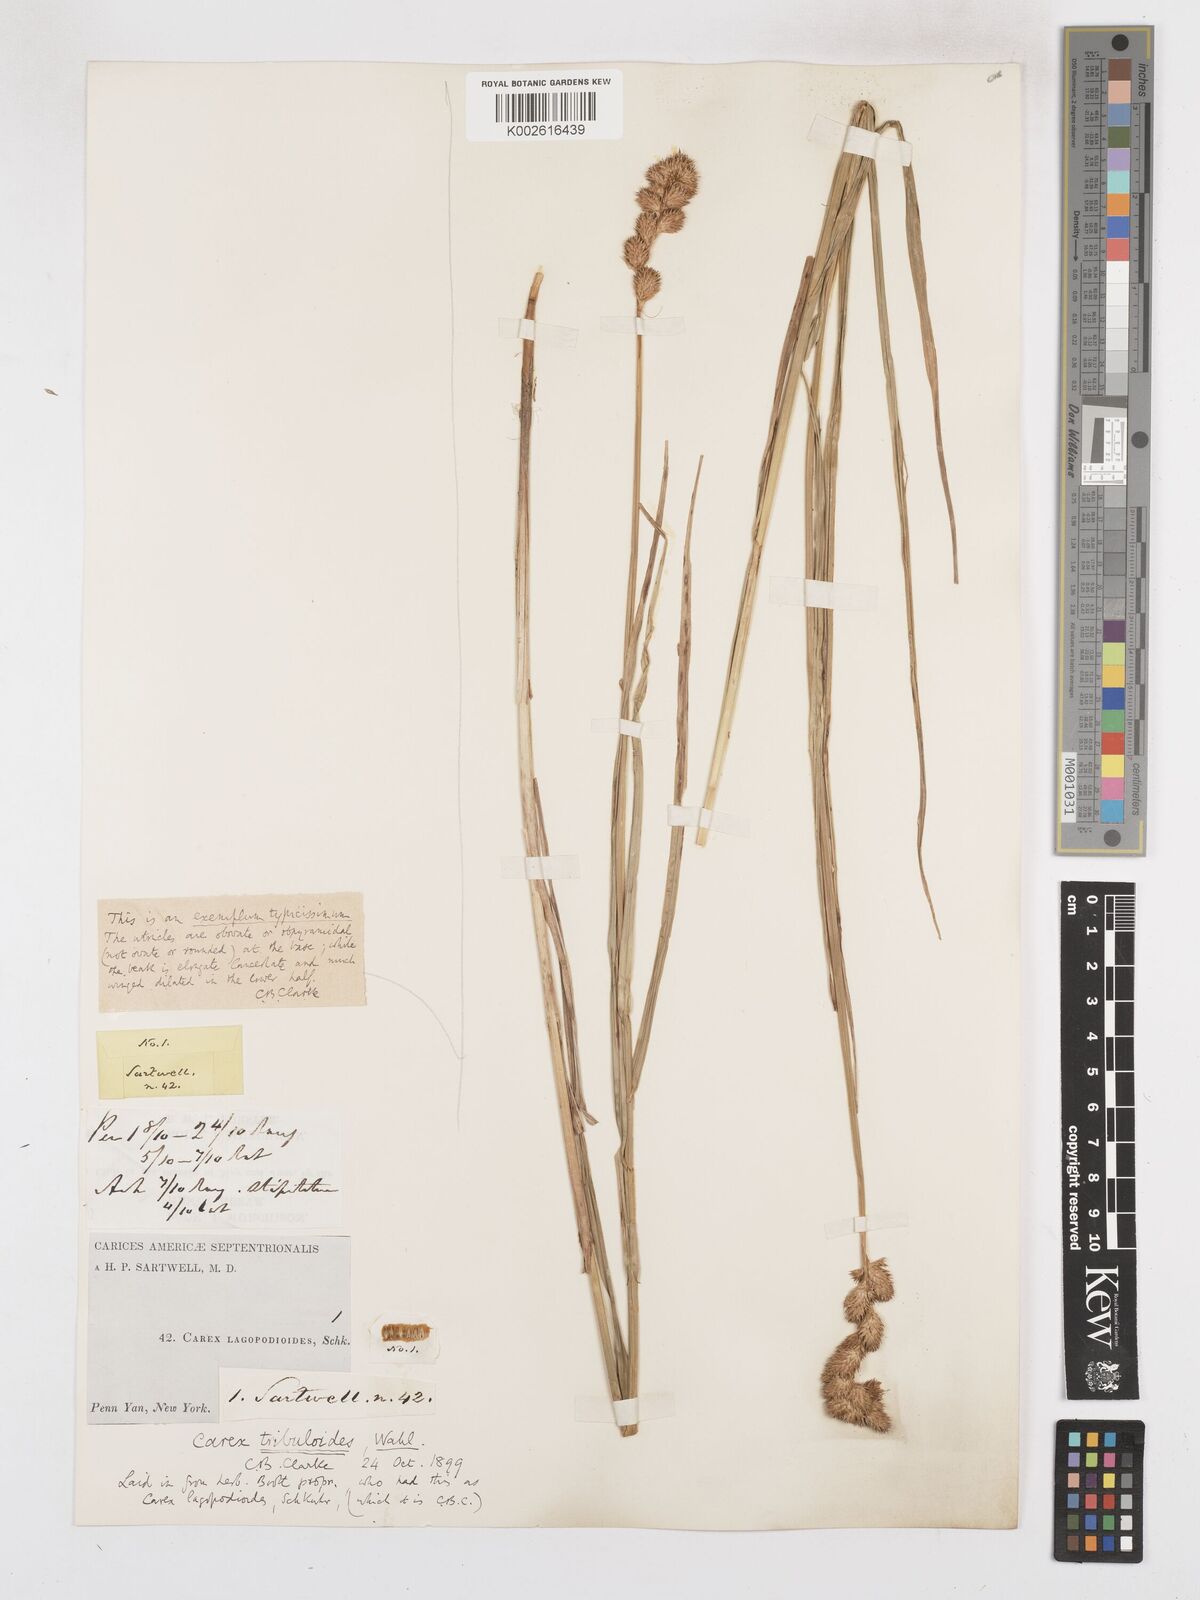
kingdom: Plantae
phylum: Tracheophyta
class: Liliopsida
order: Poales
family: Cyperaceae
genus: Carex
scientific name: Carex tribuloides
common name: Blunt broom sedge
